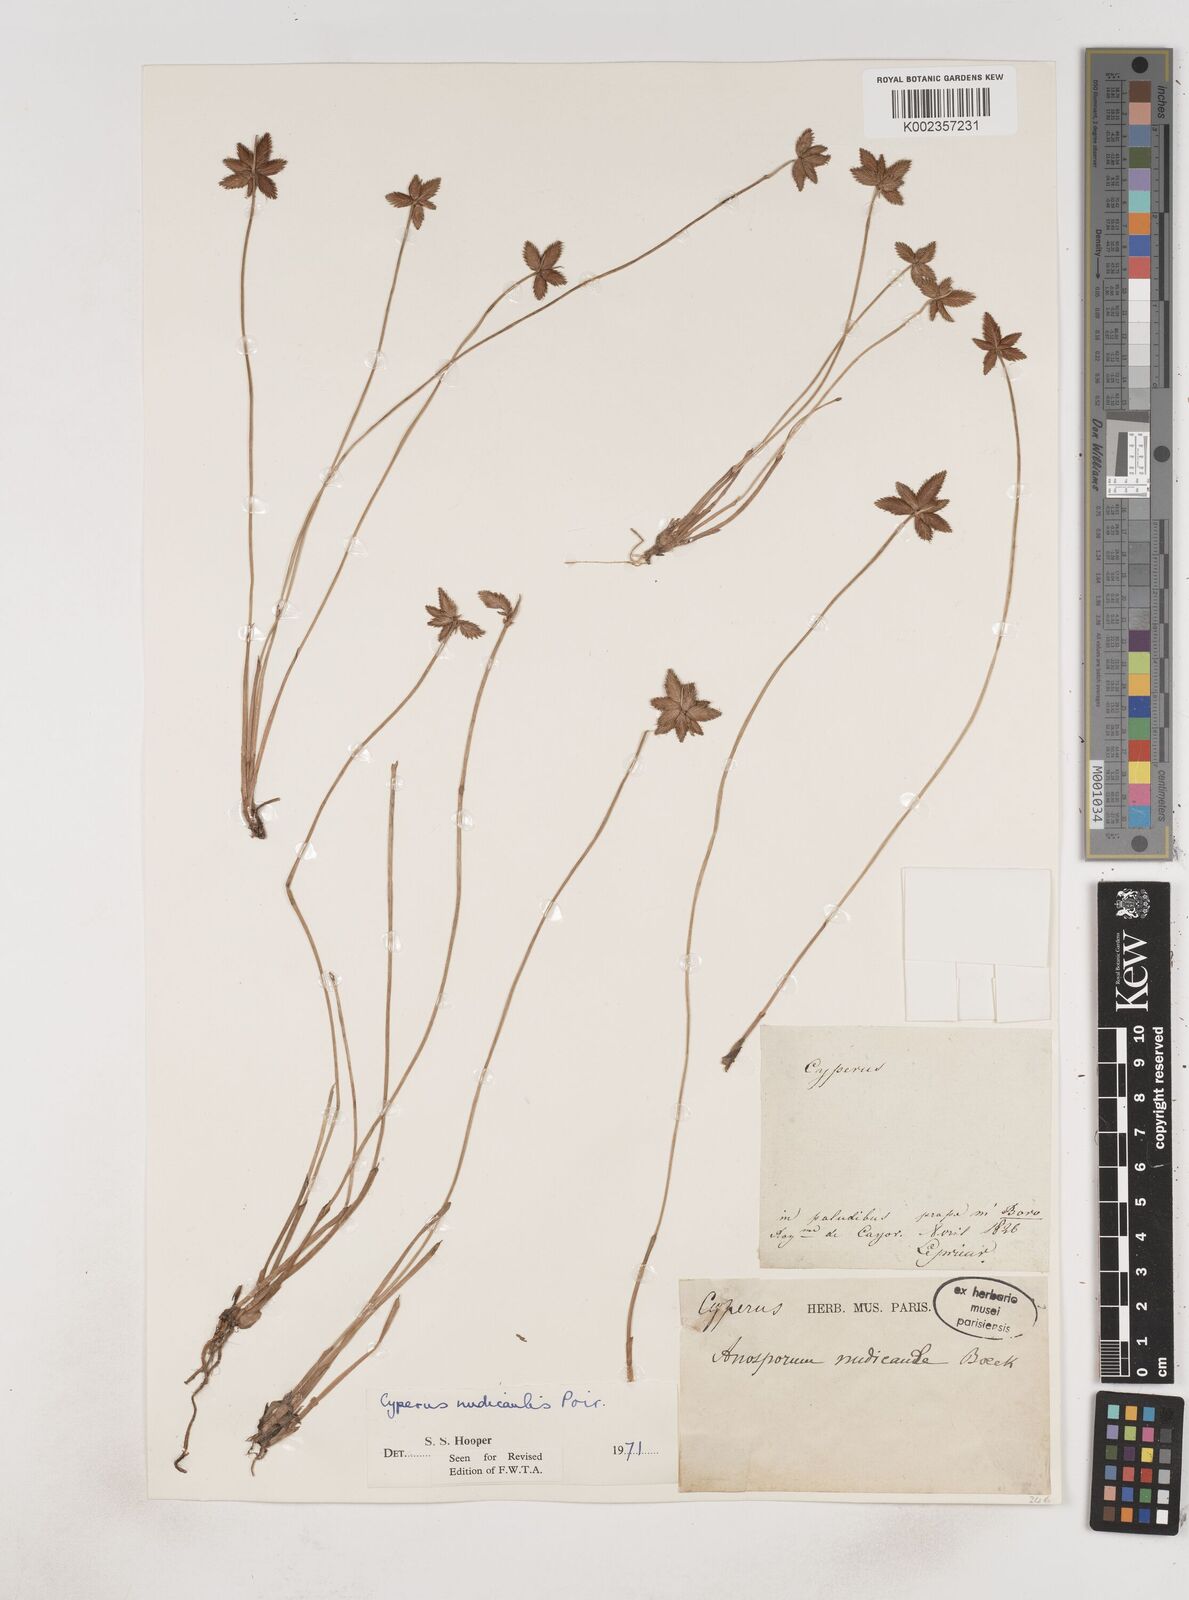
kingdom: Plantae
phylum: Tracheophyta
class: Liliopsida
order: Poales
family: Cyperaceae
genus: Cyperus
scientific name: Cyperus pectinatus
